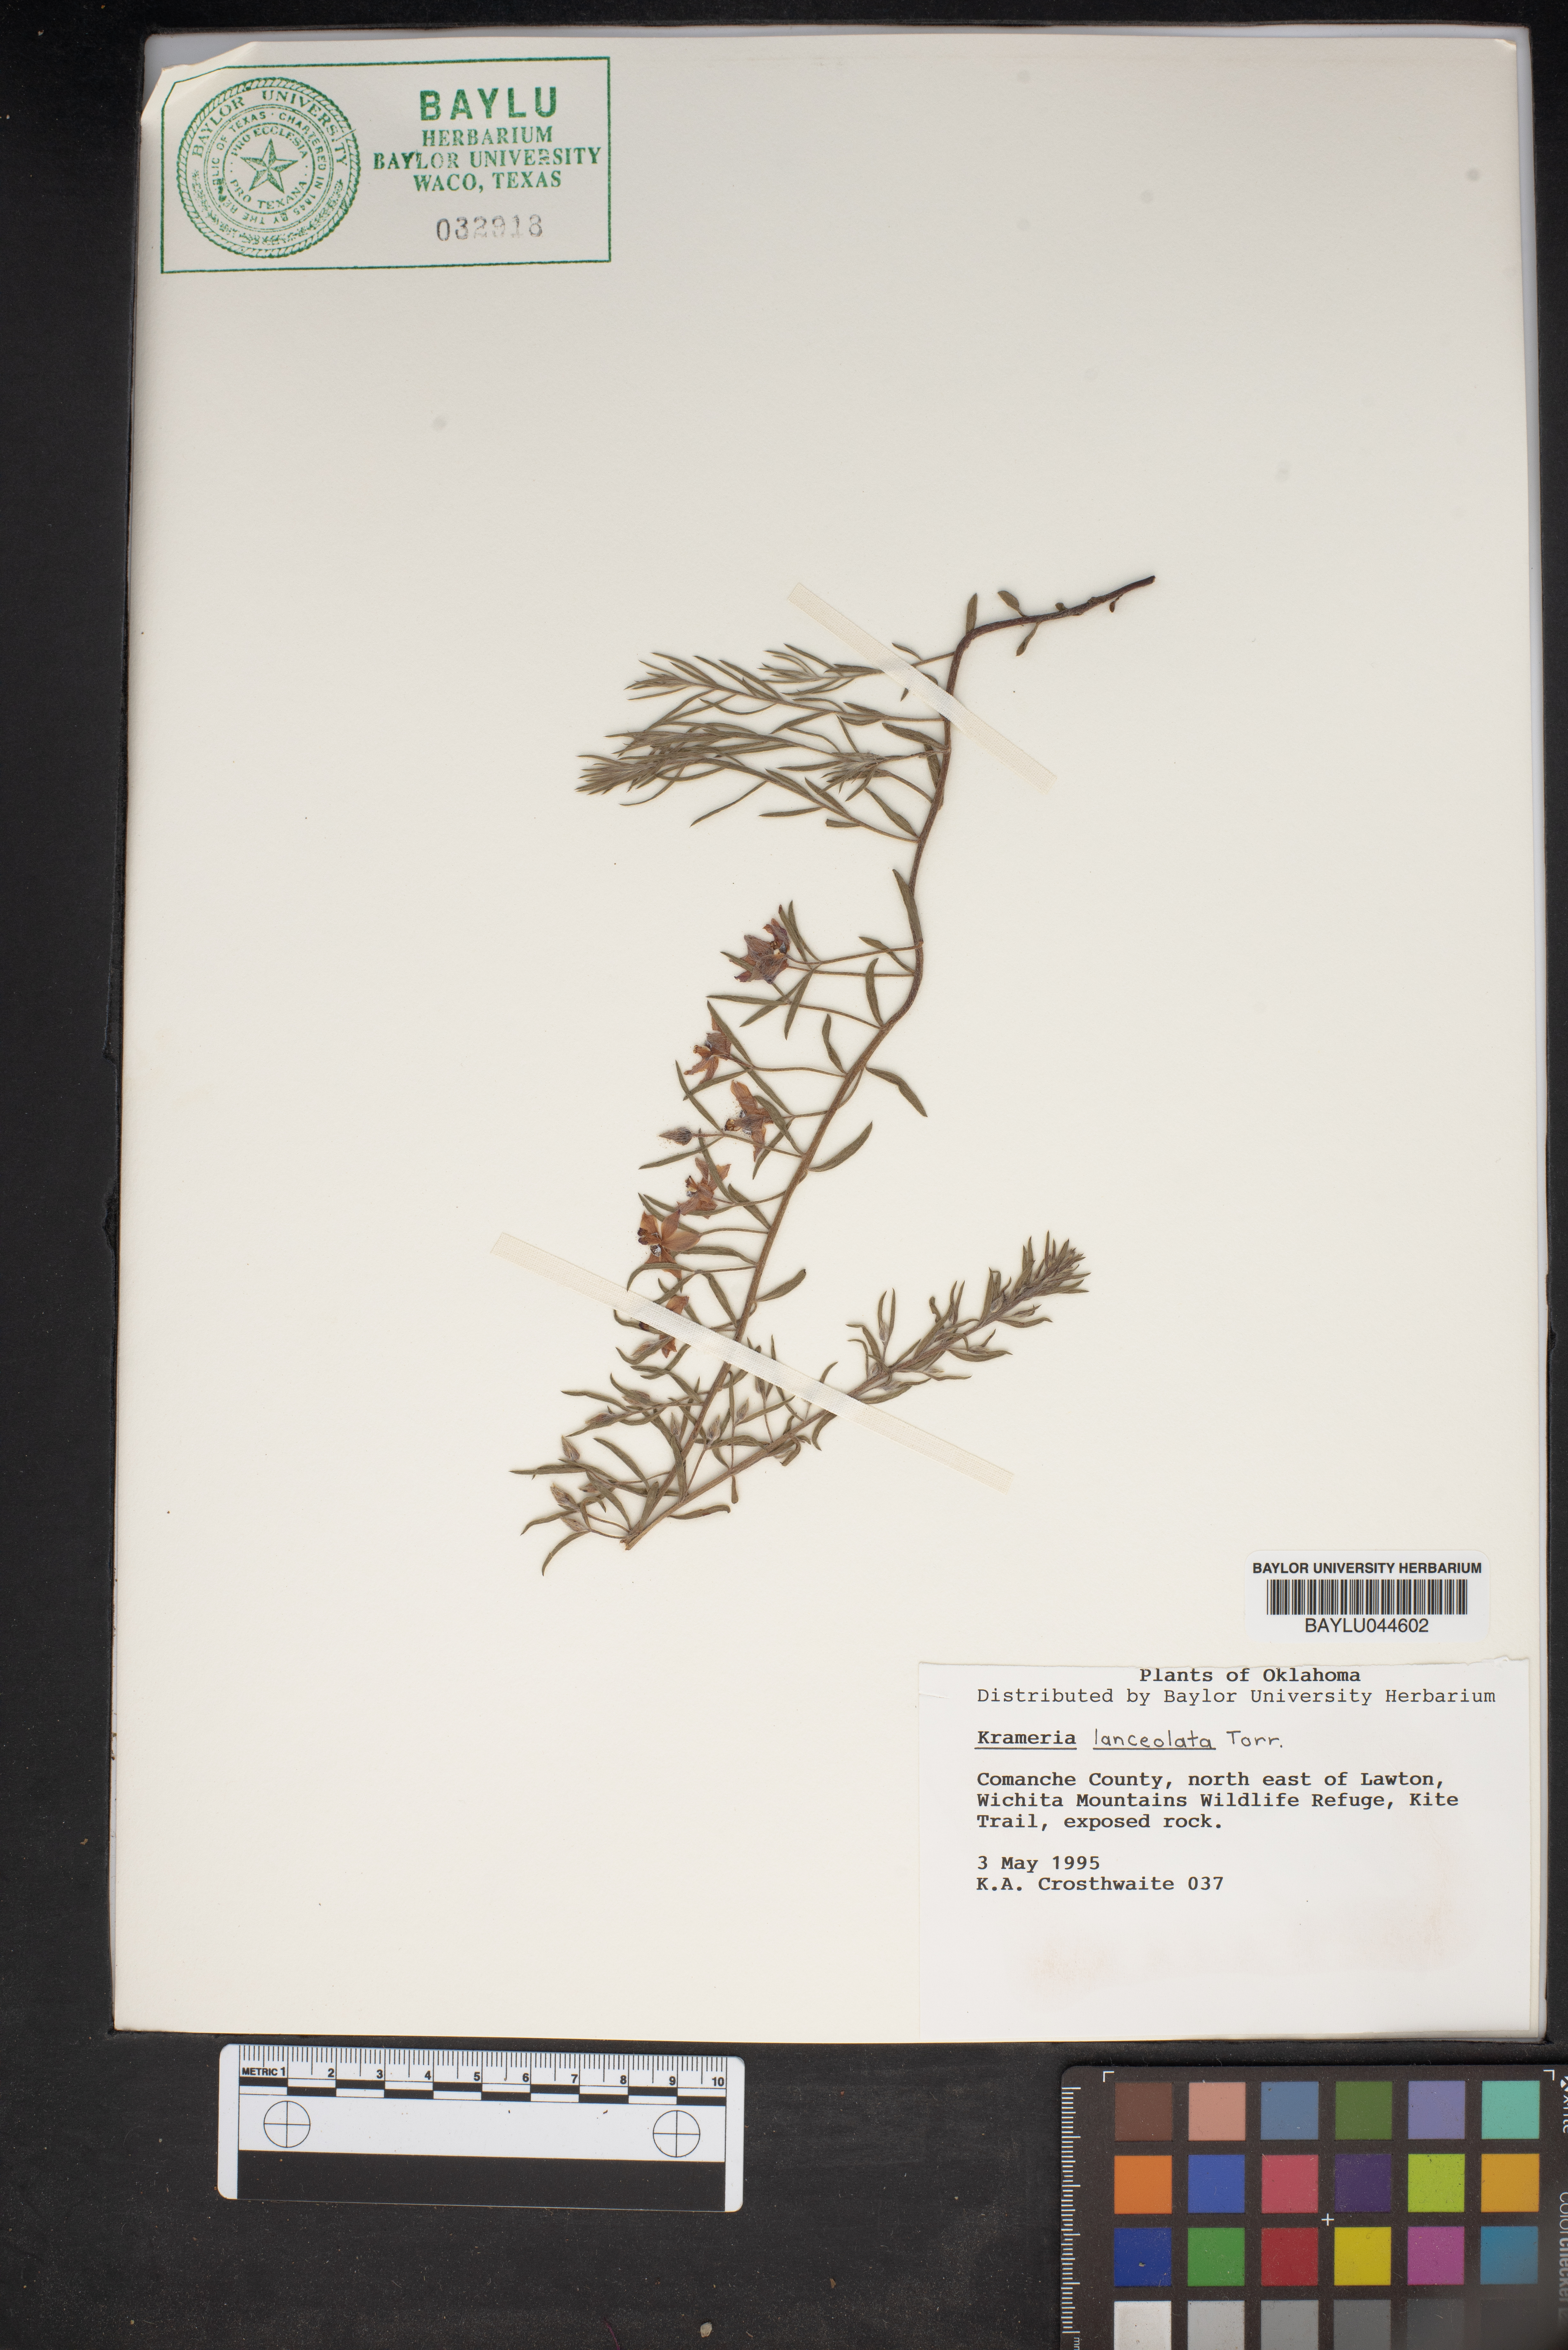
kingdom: Plantae
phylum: Tracheophyta
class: Magnoliopsida
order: Zygophyllales
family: Krameriaceae
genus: Krameria
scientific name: Krameria lanceolata
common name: Ratany
